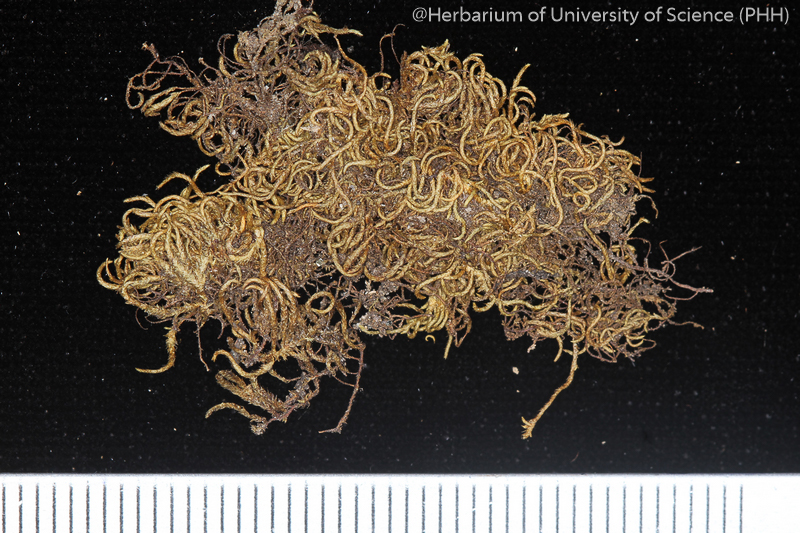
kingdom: Plantae
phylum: Bryophyta
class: Bryopsida
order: Hypnales
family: Pylaisiadelphaceae
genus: Trachyphyllum
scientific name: Trachyphyllum inflexum
